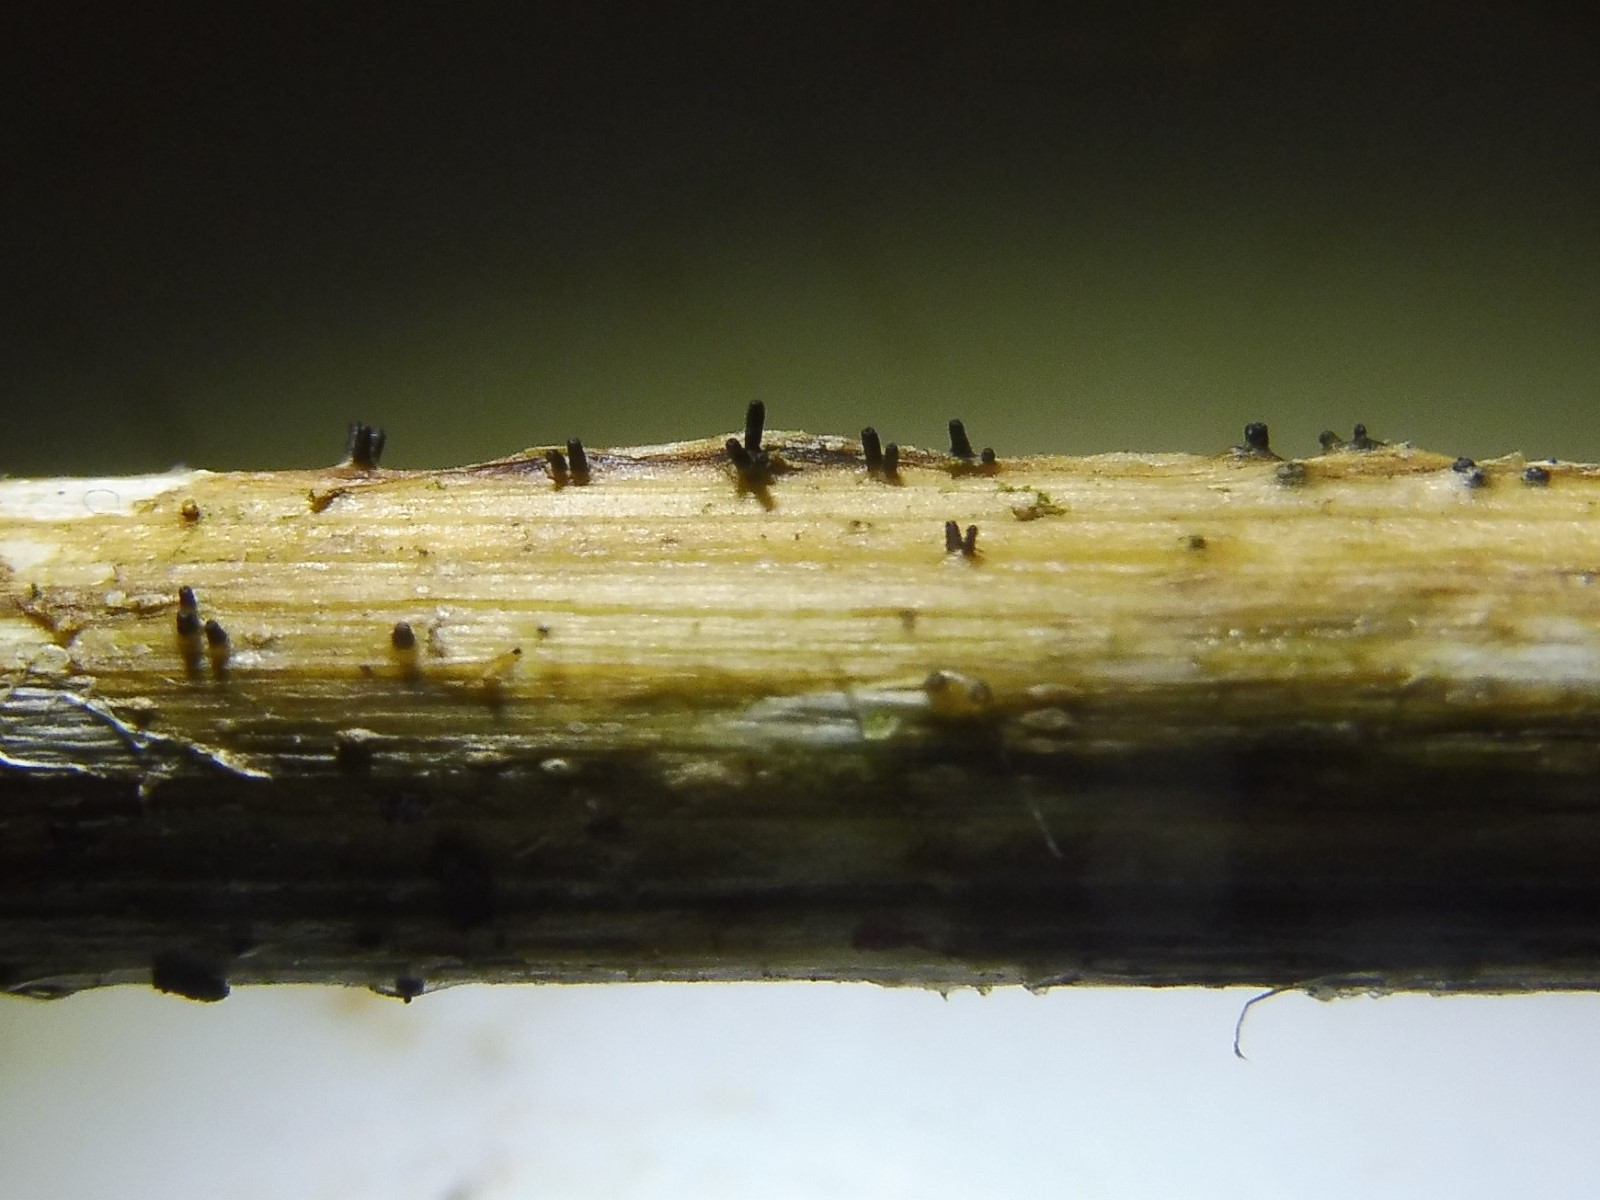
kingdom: Fungi
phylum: Ascomycota
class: Dothideomycetes
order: Acrospermales
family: Acrospermaceae
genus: Acrospermum
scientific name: Acrospermum compressum
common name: nælde-stængeltunge
